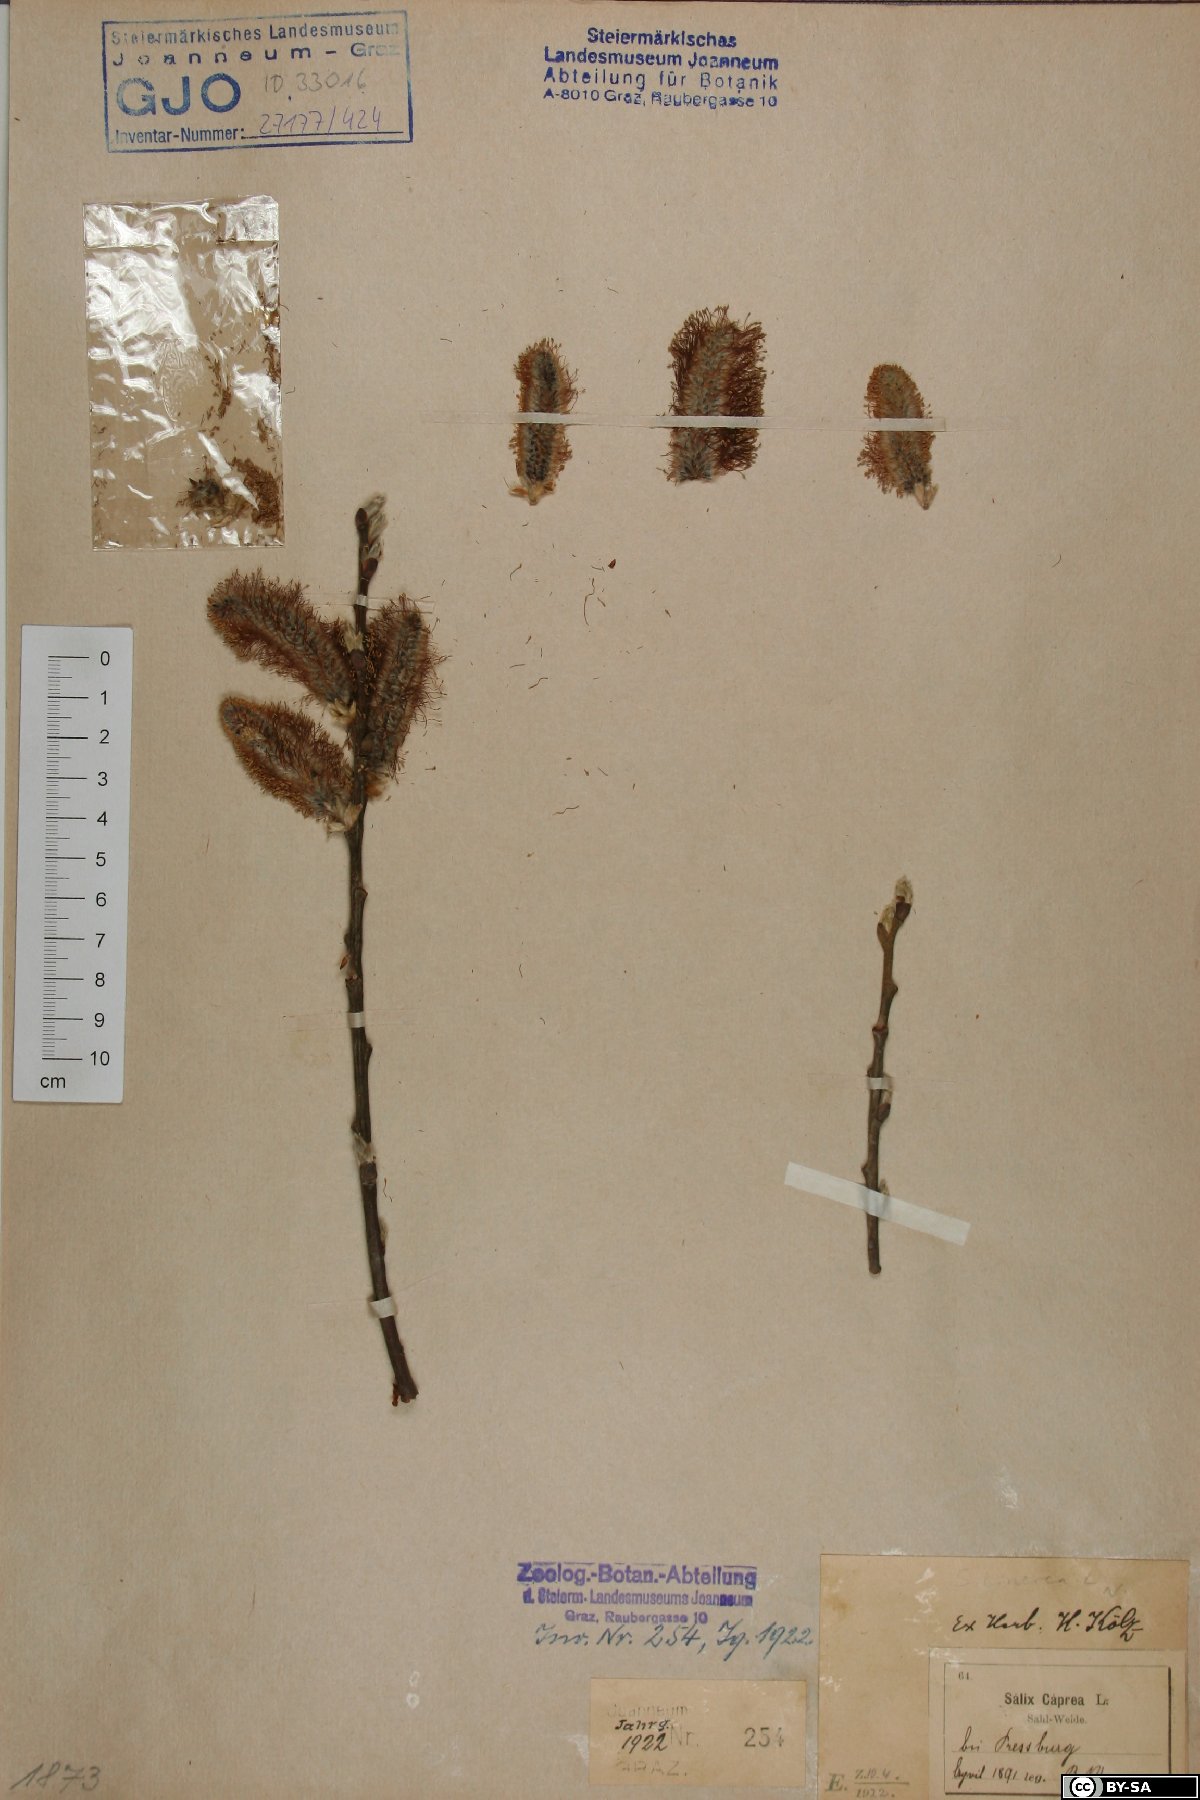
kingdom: Plantae
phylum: Tracheophyta
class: Magnoliopsida
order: Malpighiales
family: Salicaceae
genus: Salix
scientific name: Salix cinerea
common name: Common sallow
